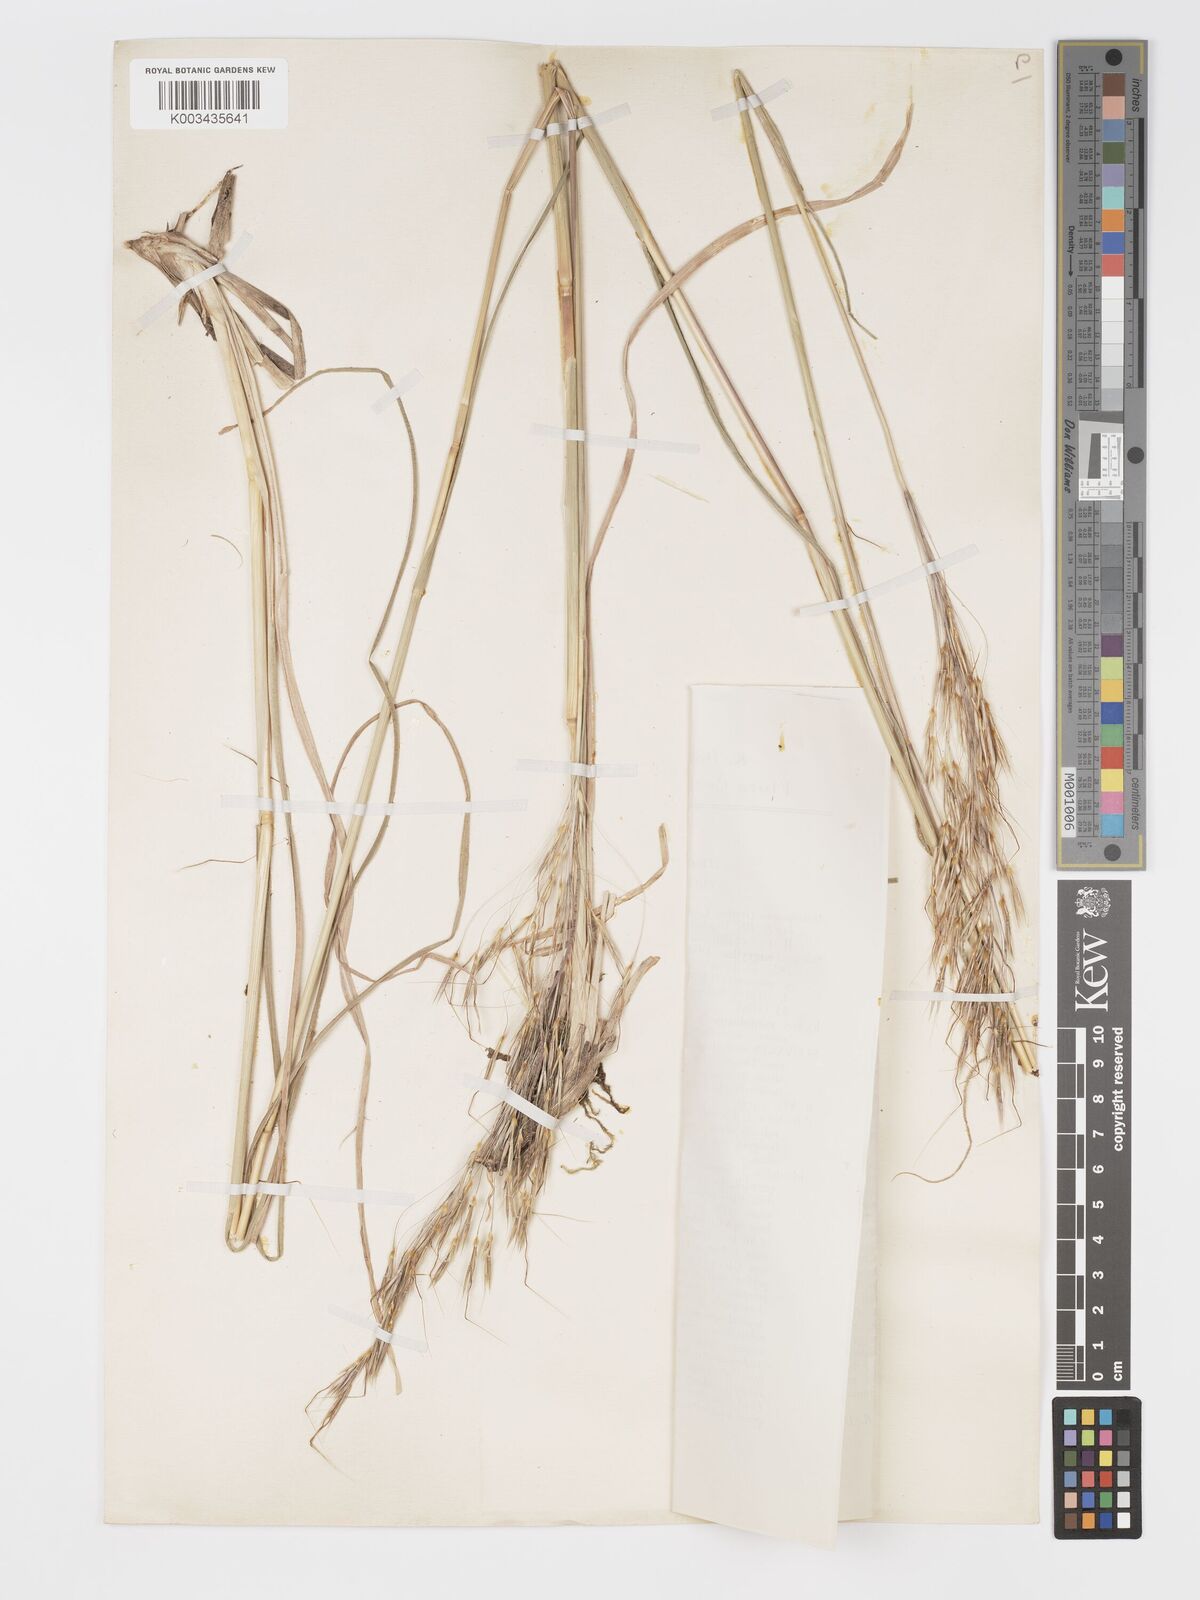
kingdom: Plantae
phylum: Tracheophyta
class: Liliopsida
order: Poales
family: Poaceae
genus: Chrysopogon
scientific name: Chrysopogon gryllus
